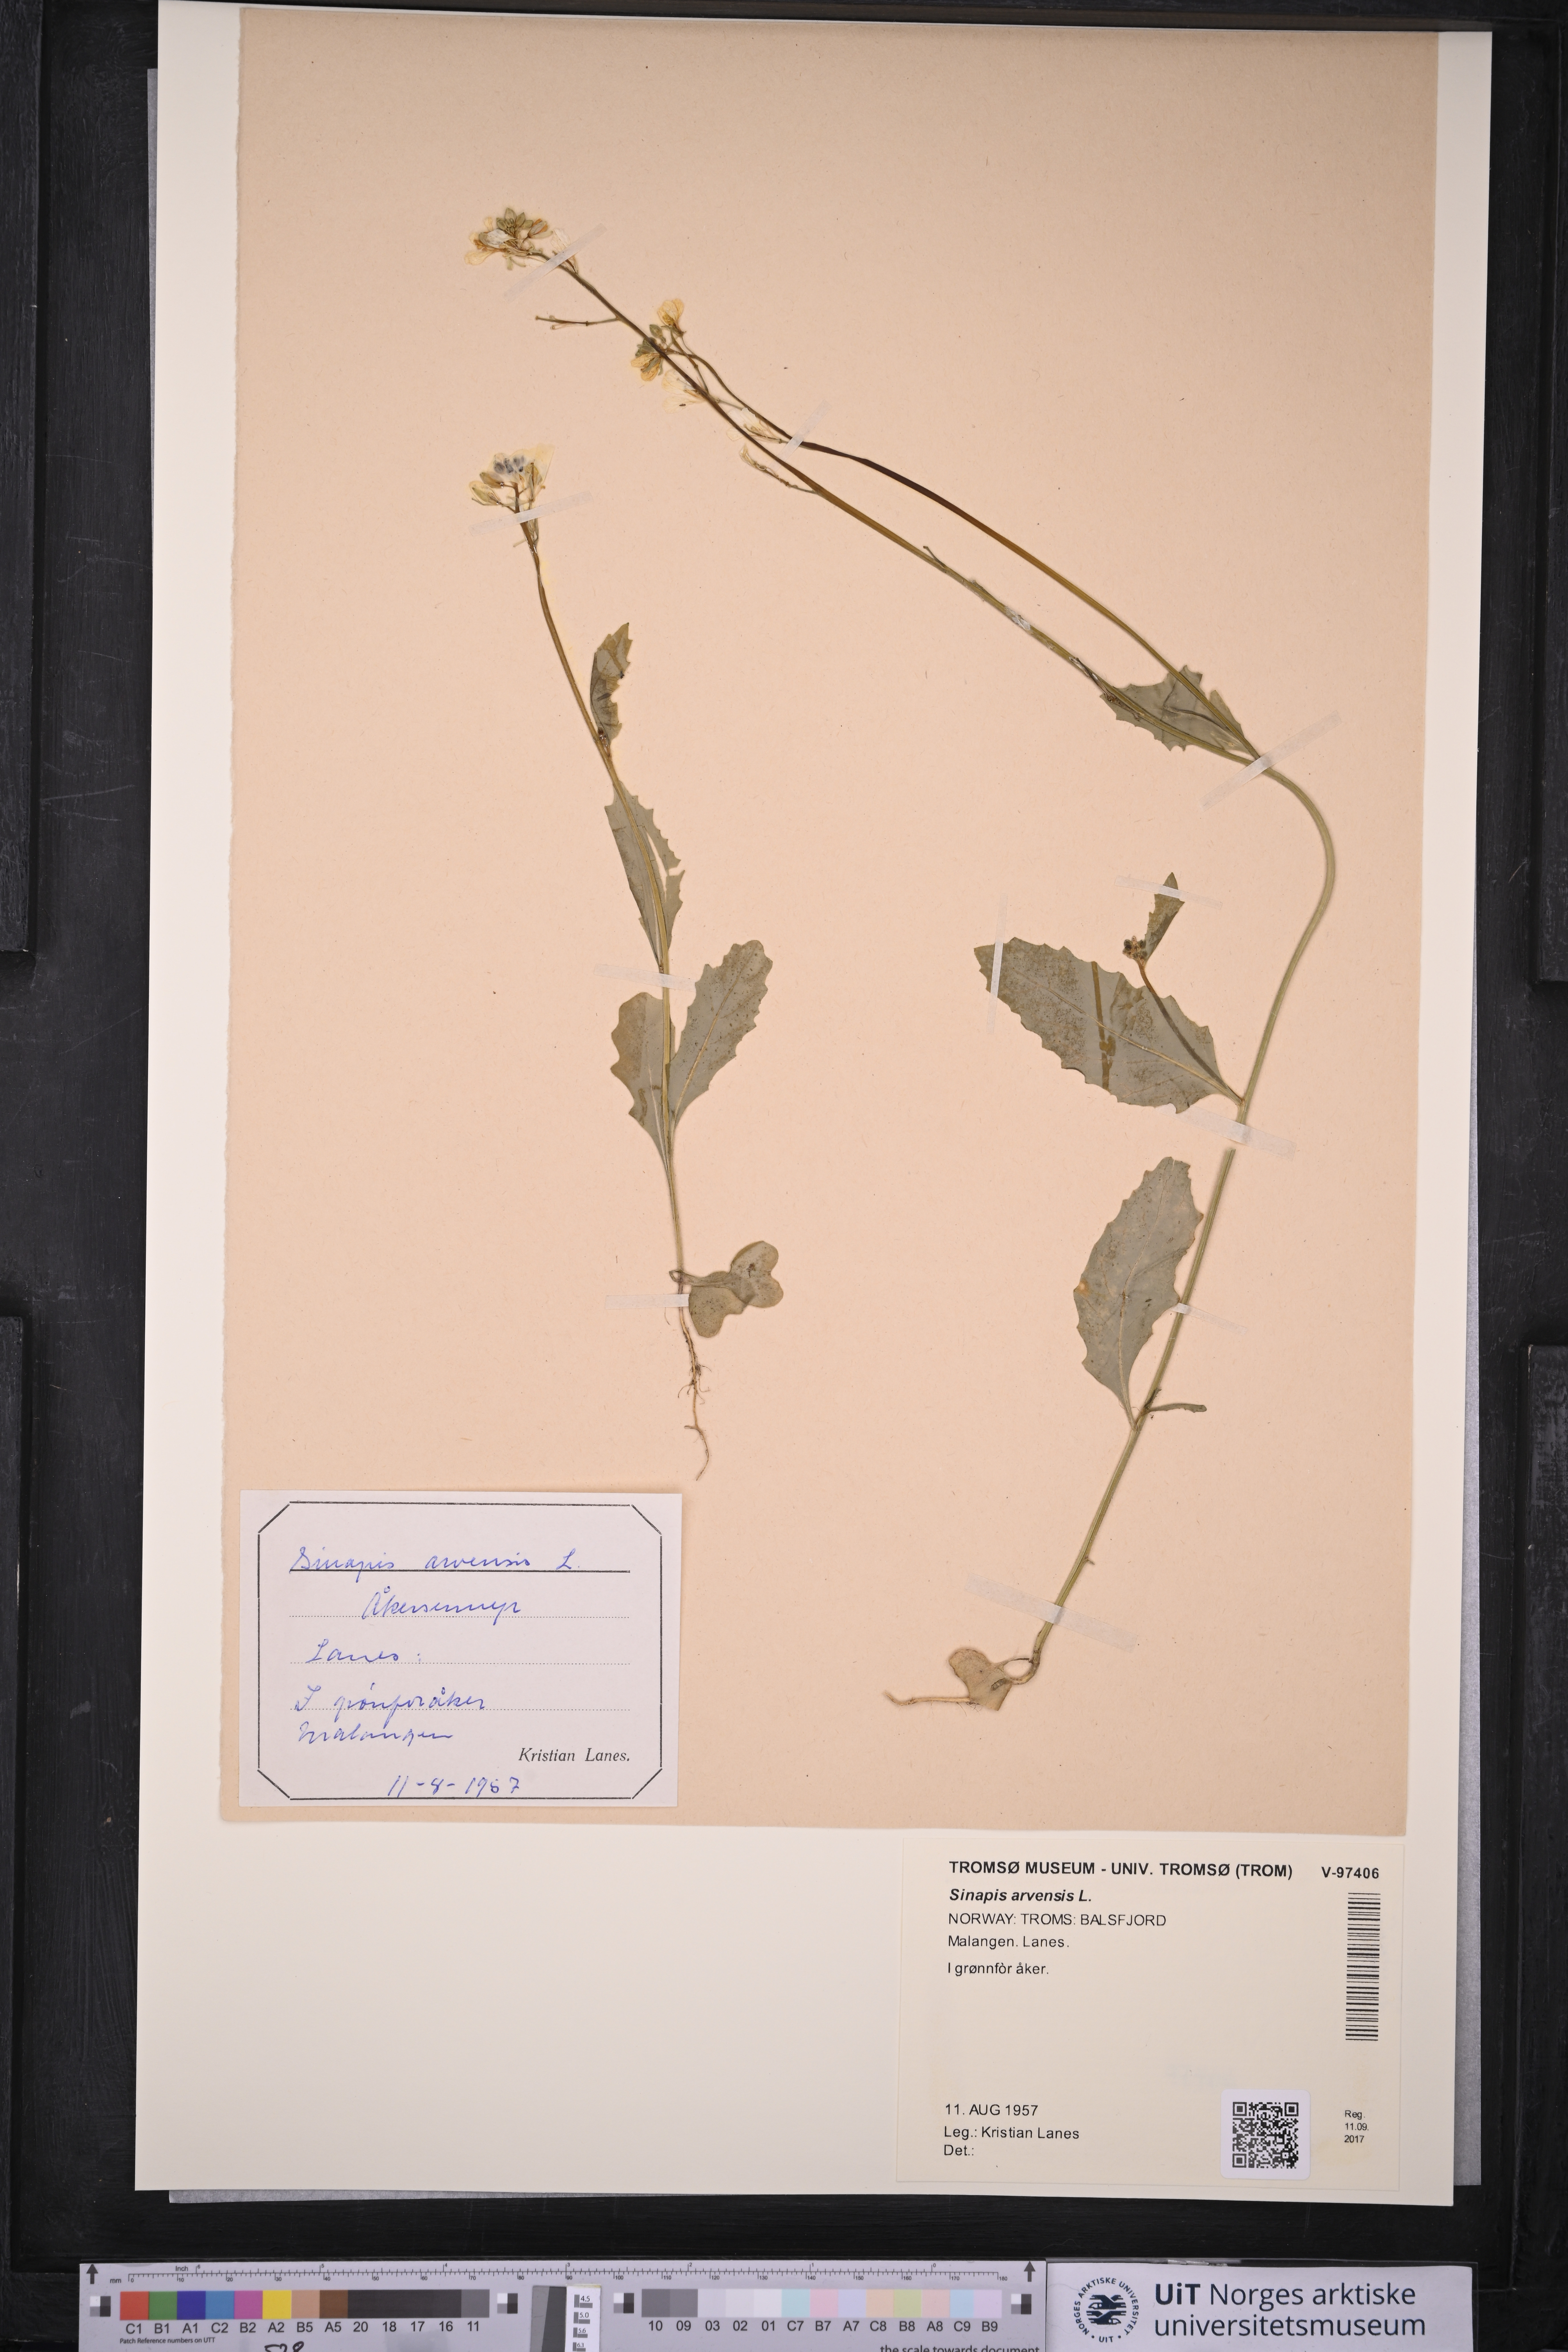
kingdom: Plantae
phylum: Tracheophyta
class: Magnoliopsida
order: Brassicales
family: Brassicaceae
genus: Sinapis
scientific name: Sinapis arvensis
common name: Charlock
